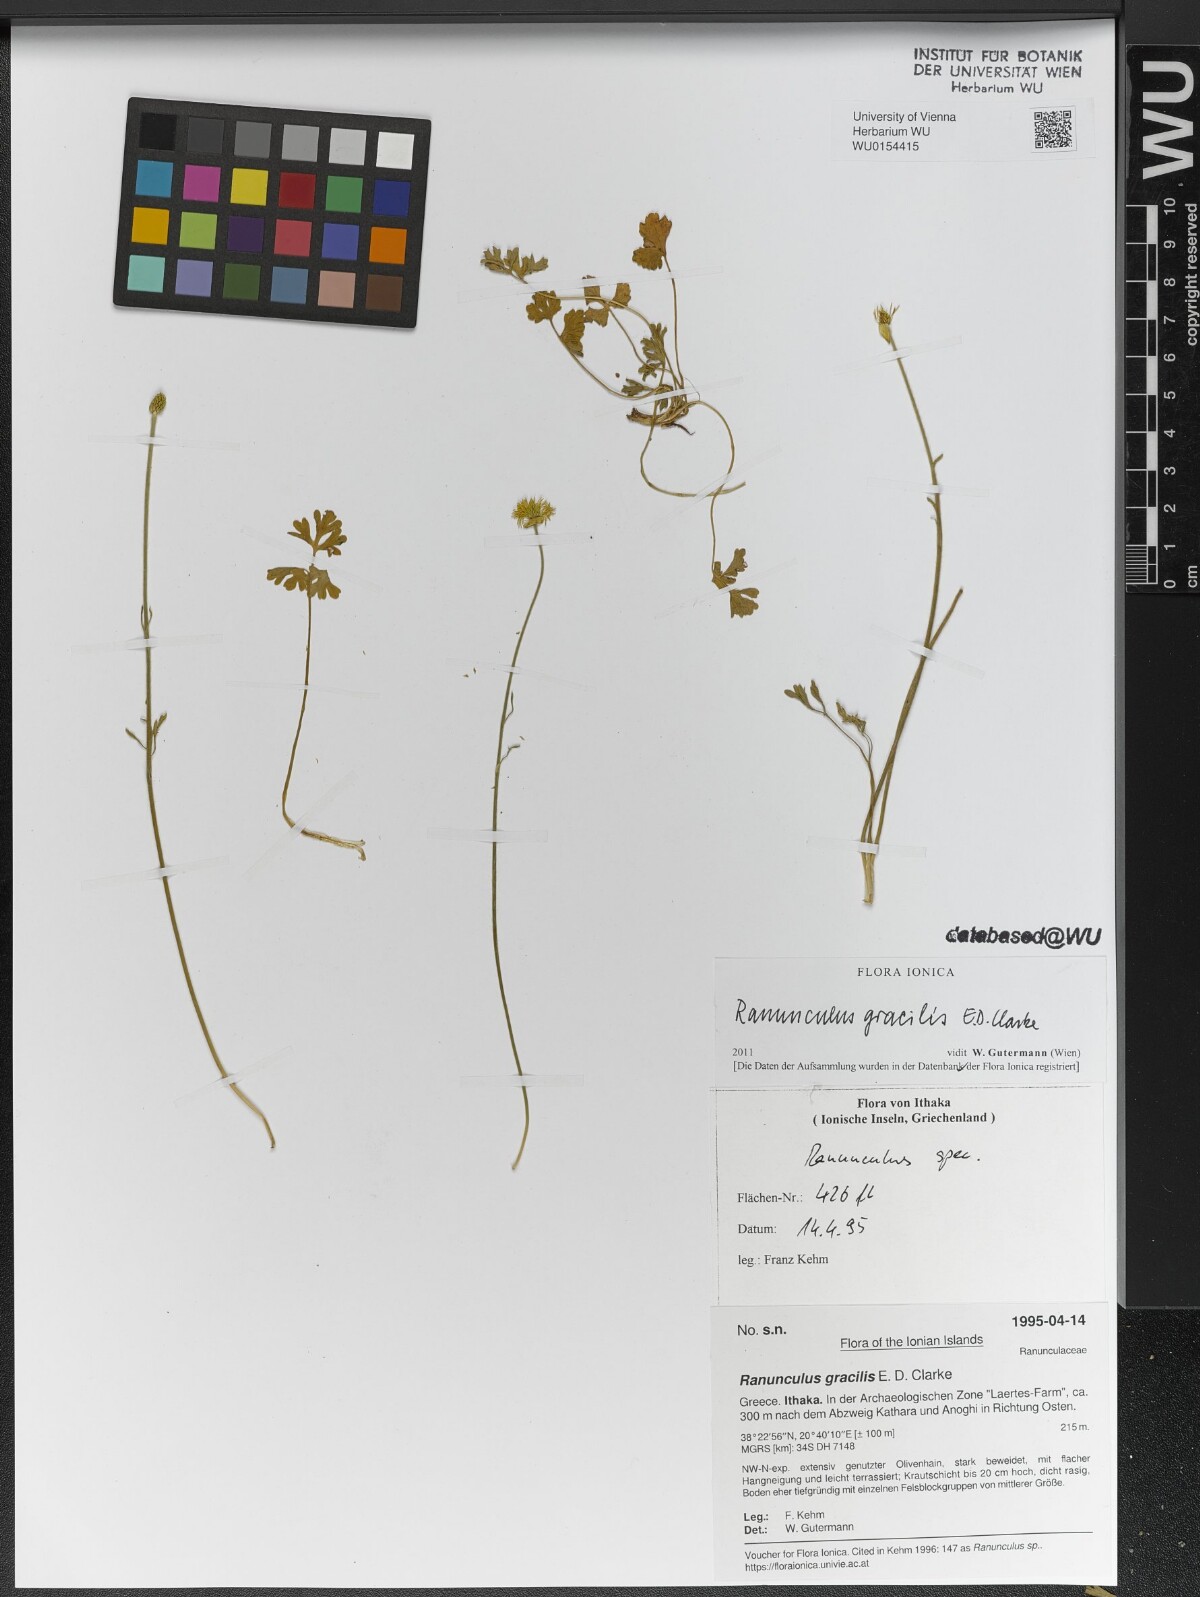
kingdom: Plantae
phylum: Tracheophyta
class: Magnoliopsida
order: Ranunculales
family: Ranunculaceae
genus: Ranunculus
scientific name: Ranunculus gracilis
